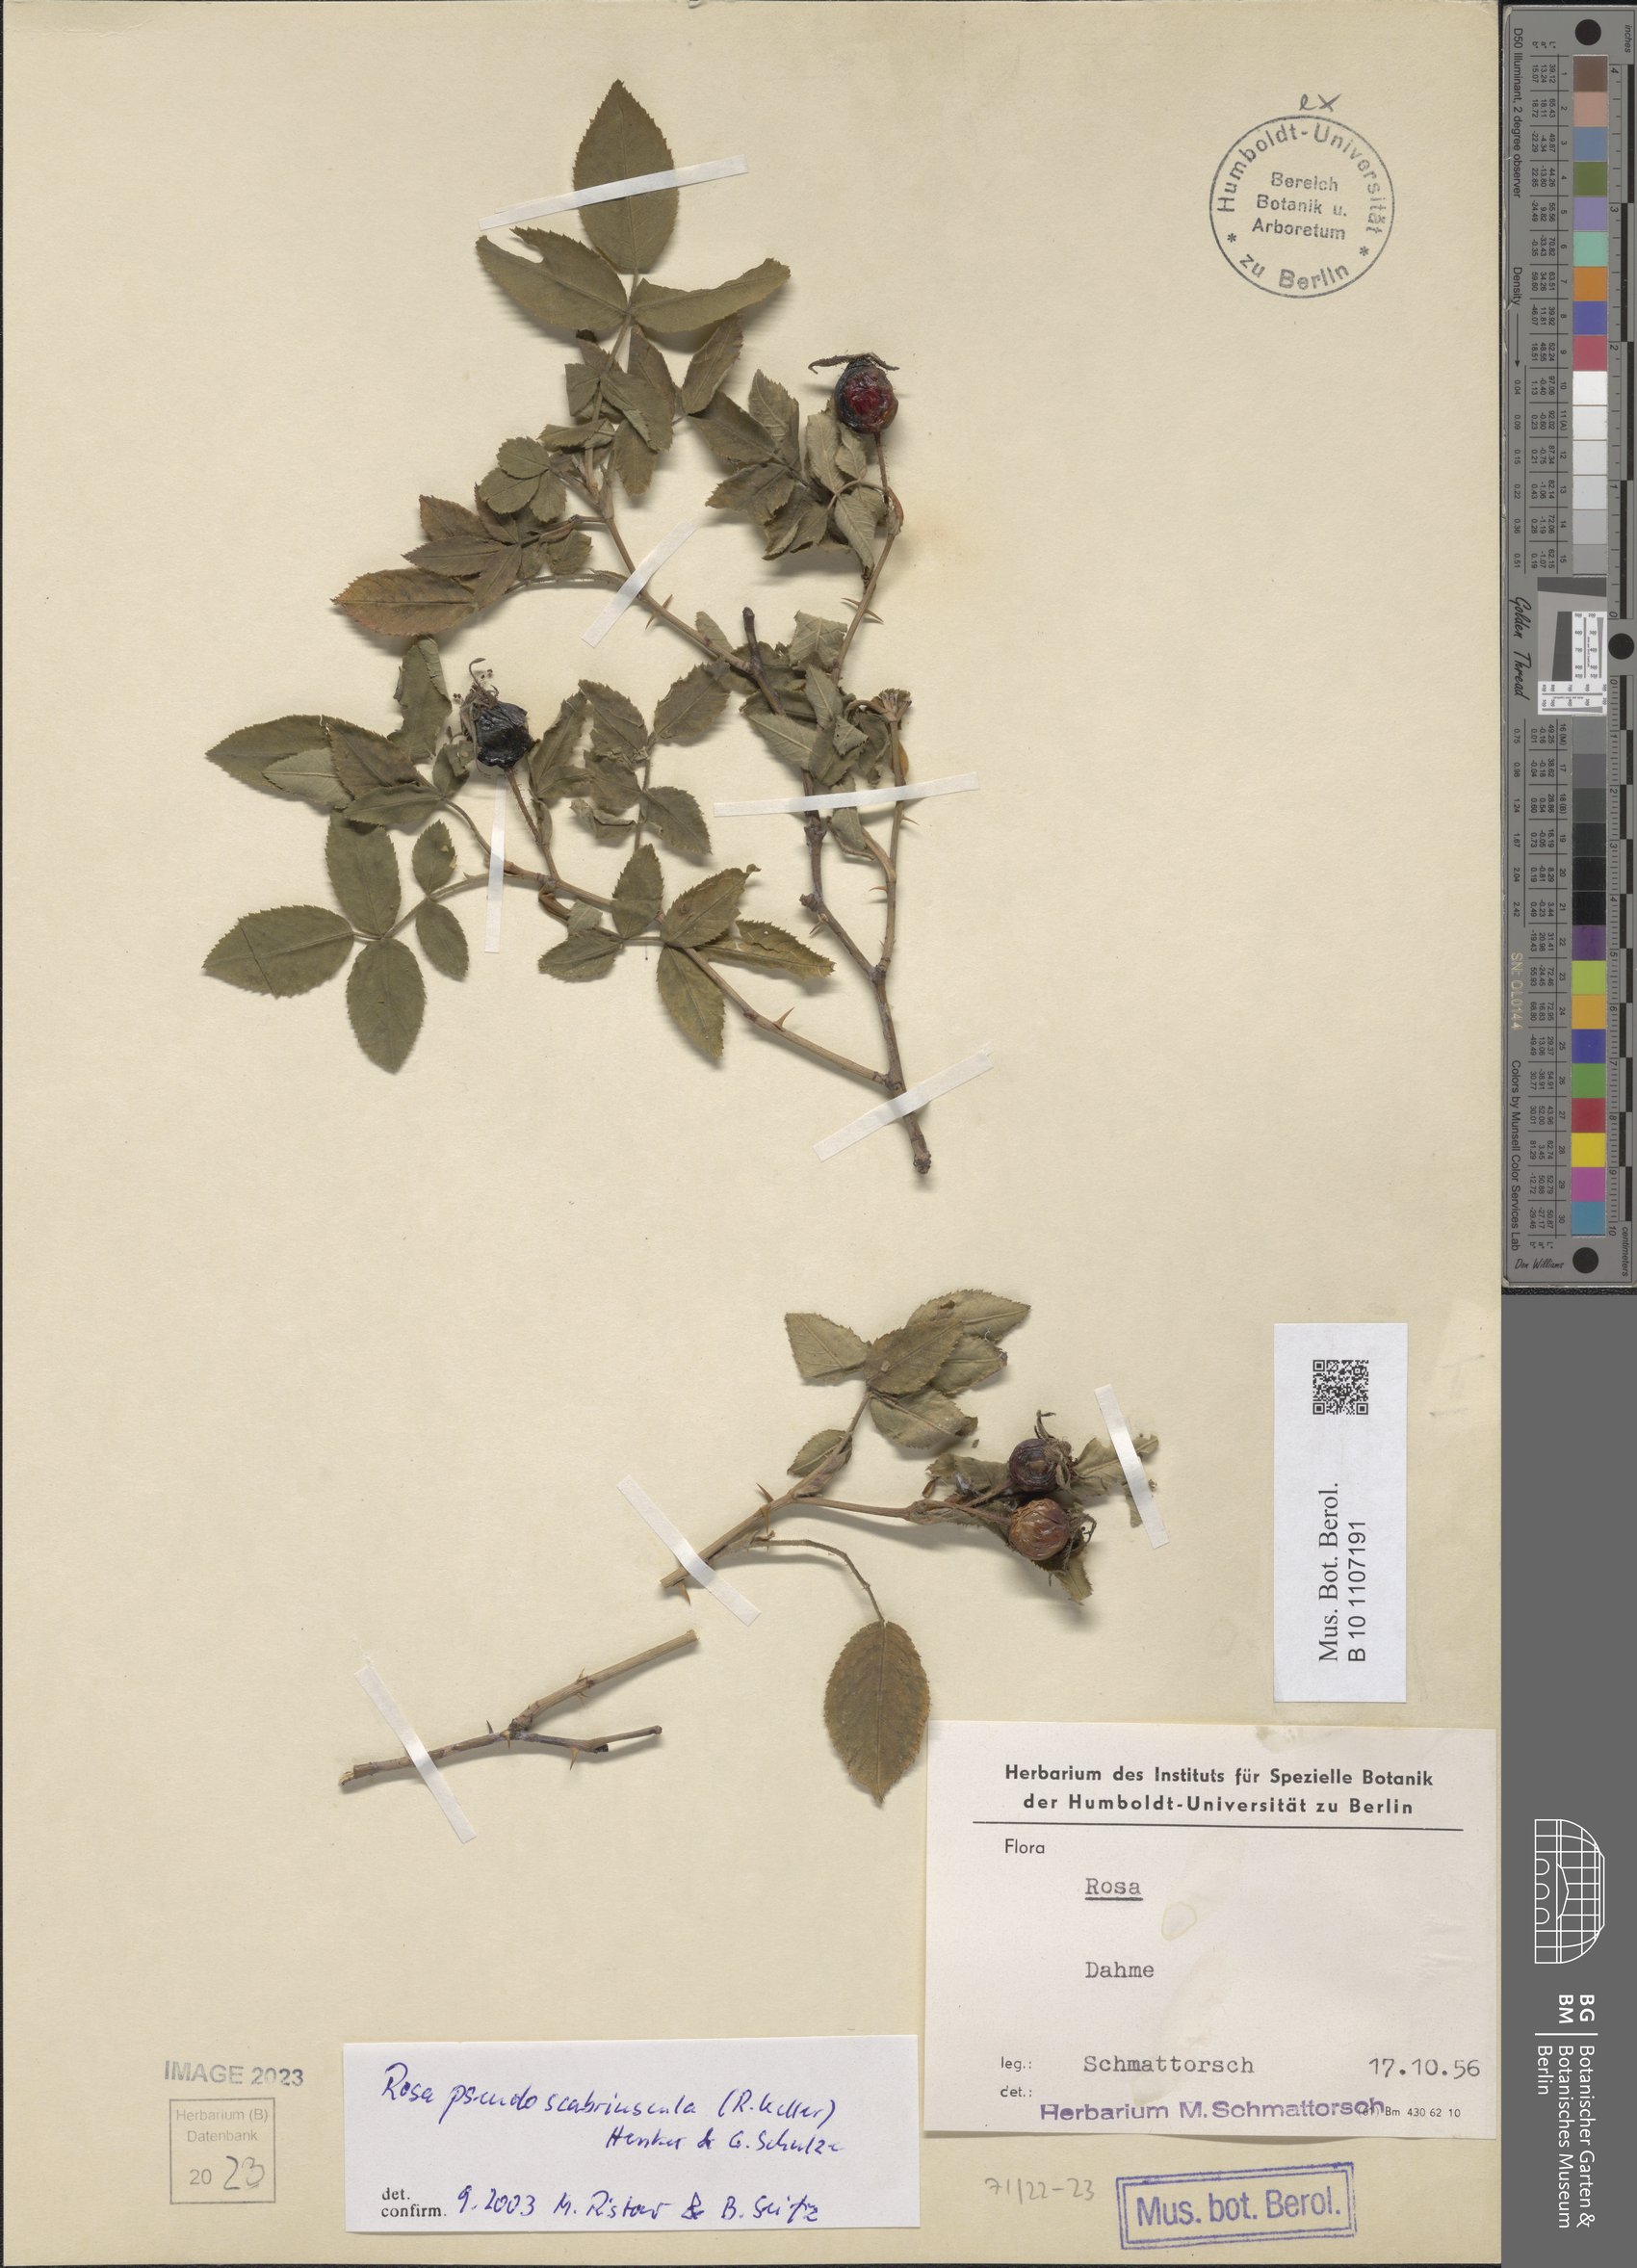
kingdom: Plantae
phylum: Tracheophyta
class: Magnoliopsida
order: Rosales
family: Rosaceae
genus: Rosa
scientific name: Rosa pseudoscabriuscula
